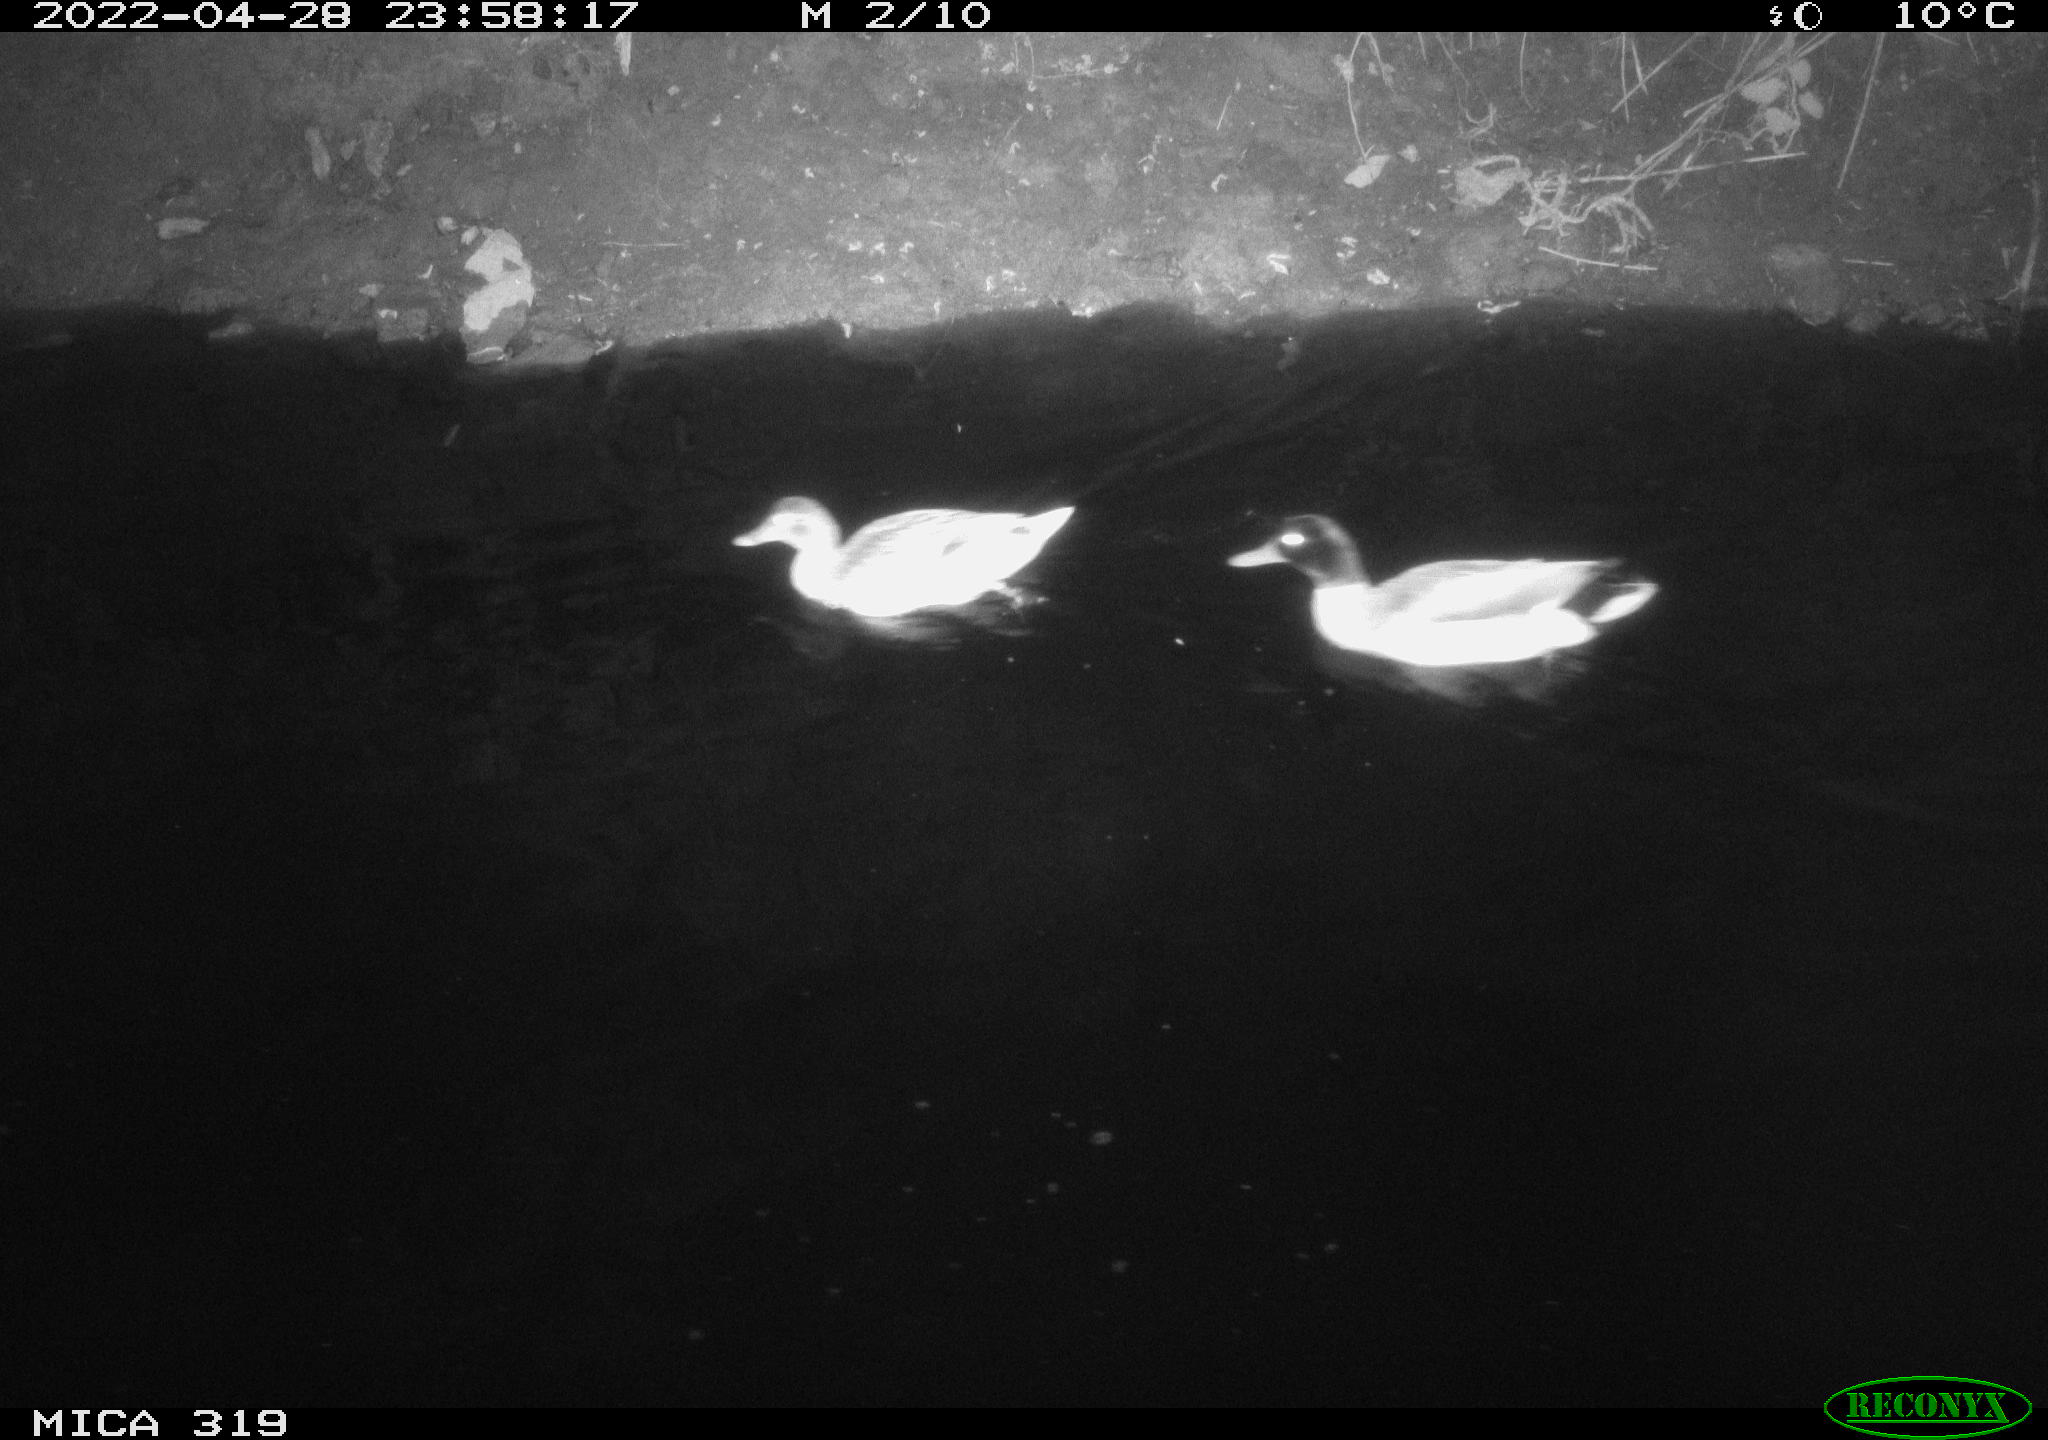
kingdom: Animalia
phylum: Chordata
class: Aves
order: Anseriformes
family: Anatidae
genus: Anas
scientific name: Anas platyrhynchos
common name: Mallard
